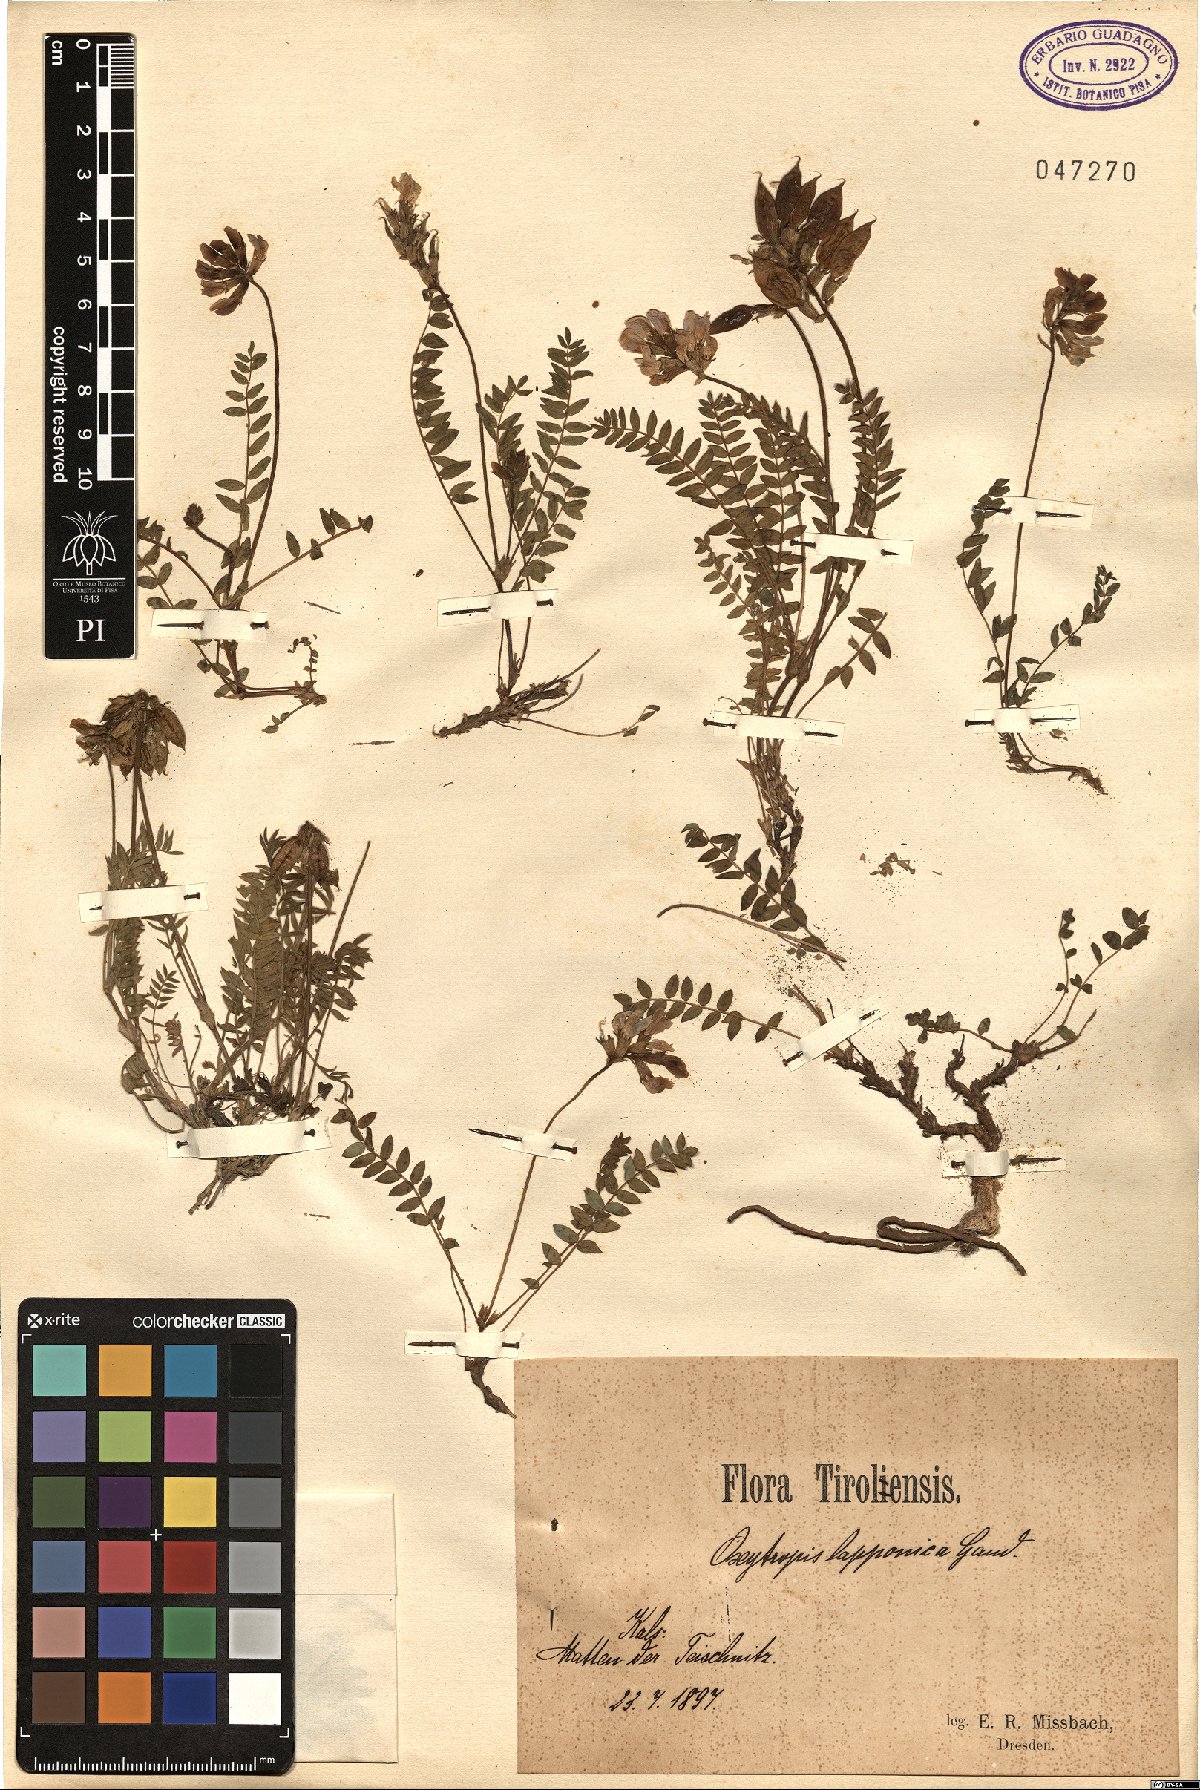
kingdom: Plantae
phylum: Tracheophyta
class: Magnoliopsida
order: Fabales
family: Fabaceae
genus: Oxytropis
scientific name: Oxytropis lapponica
